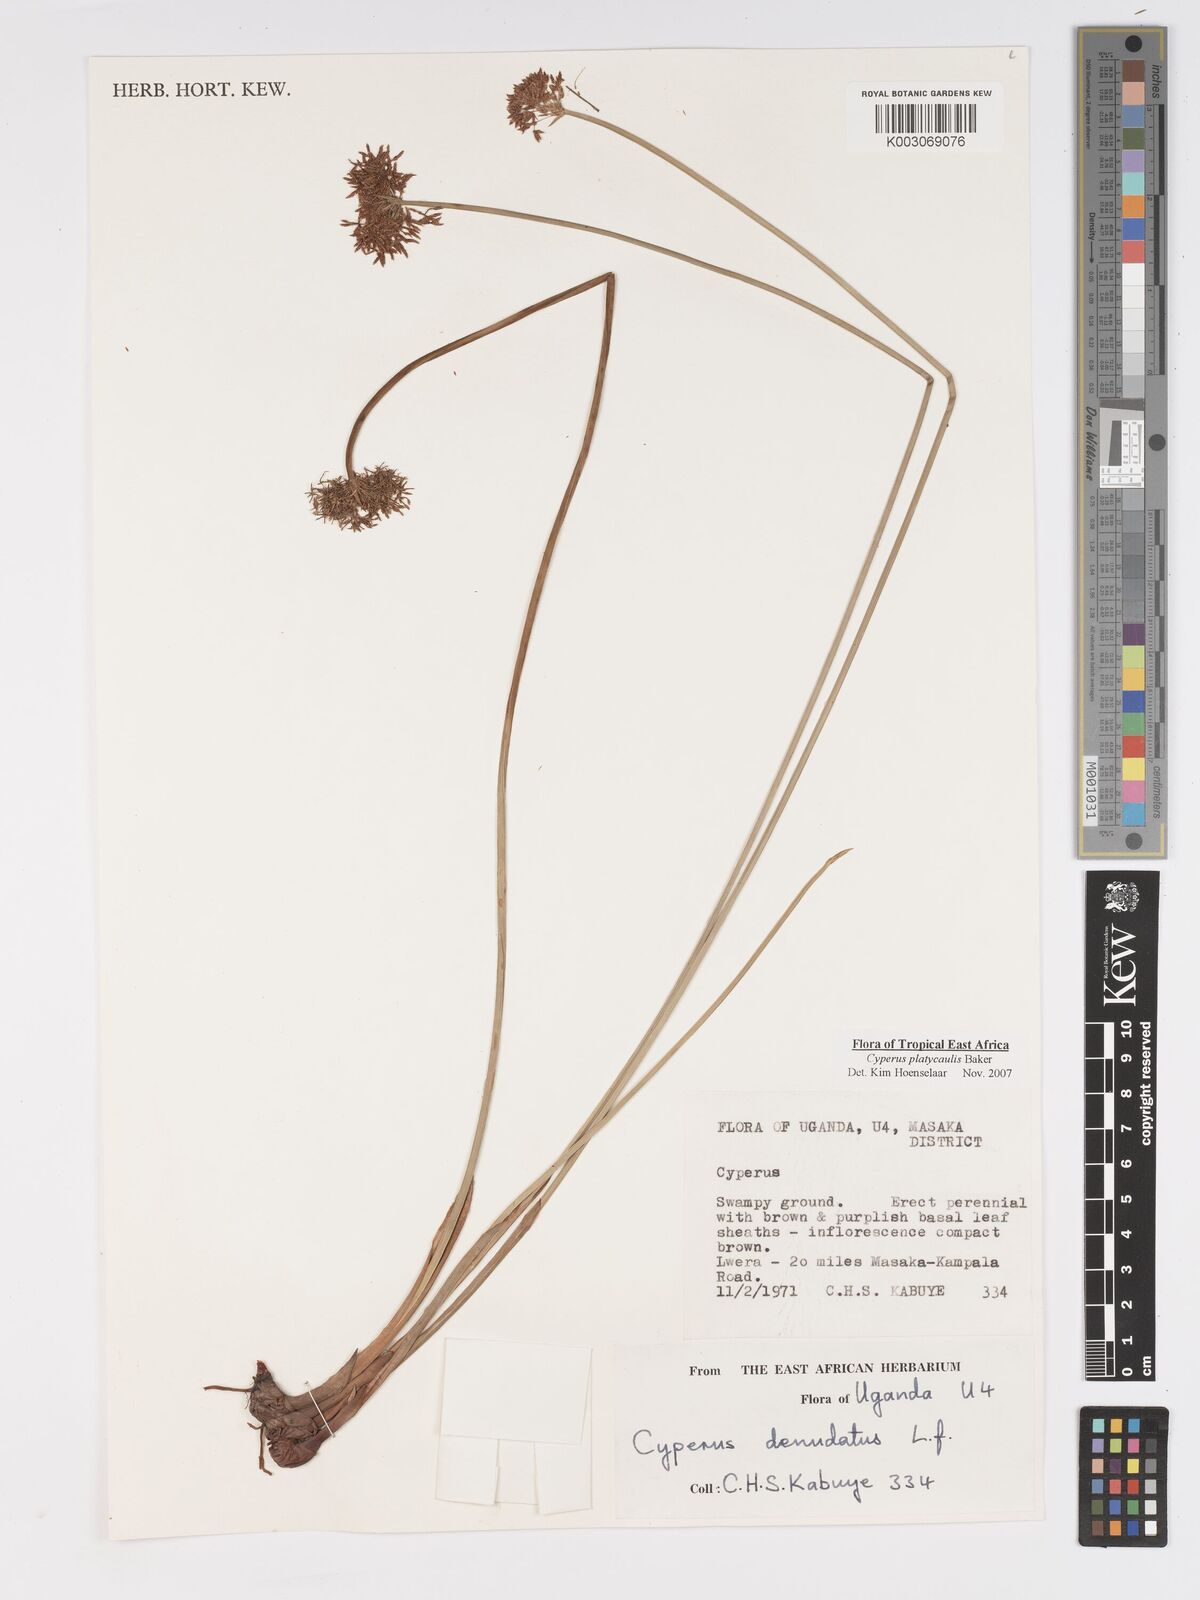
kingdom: Plantae
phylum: Tracheophyta
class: Liliopsida
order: Poales
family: Cyperaceae
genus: Cyperus
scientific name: Cyperus platycaulis
